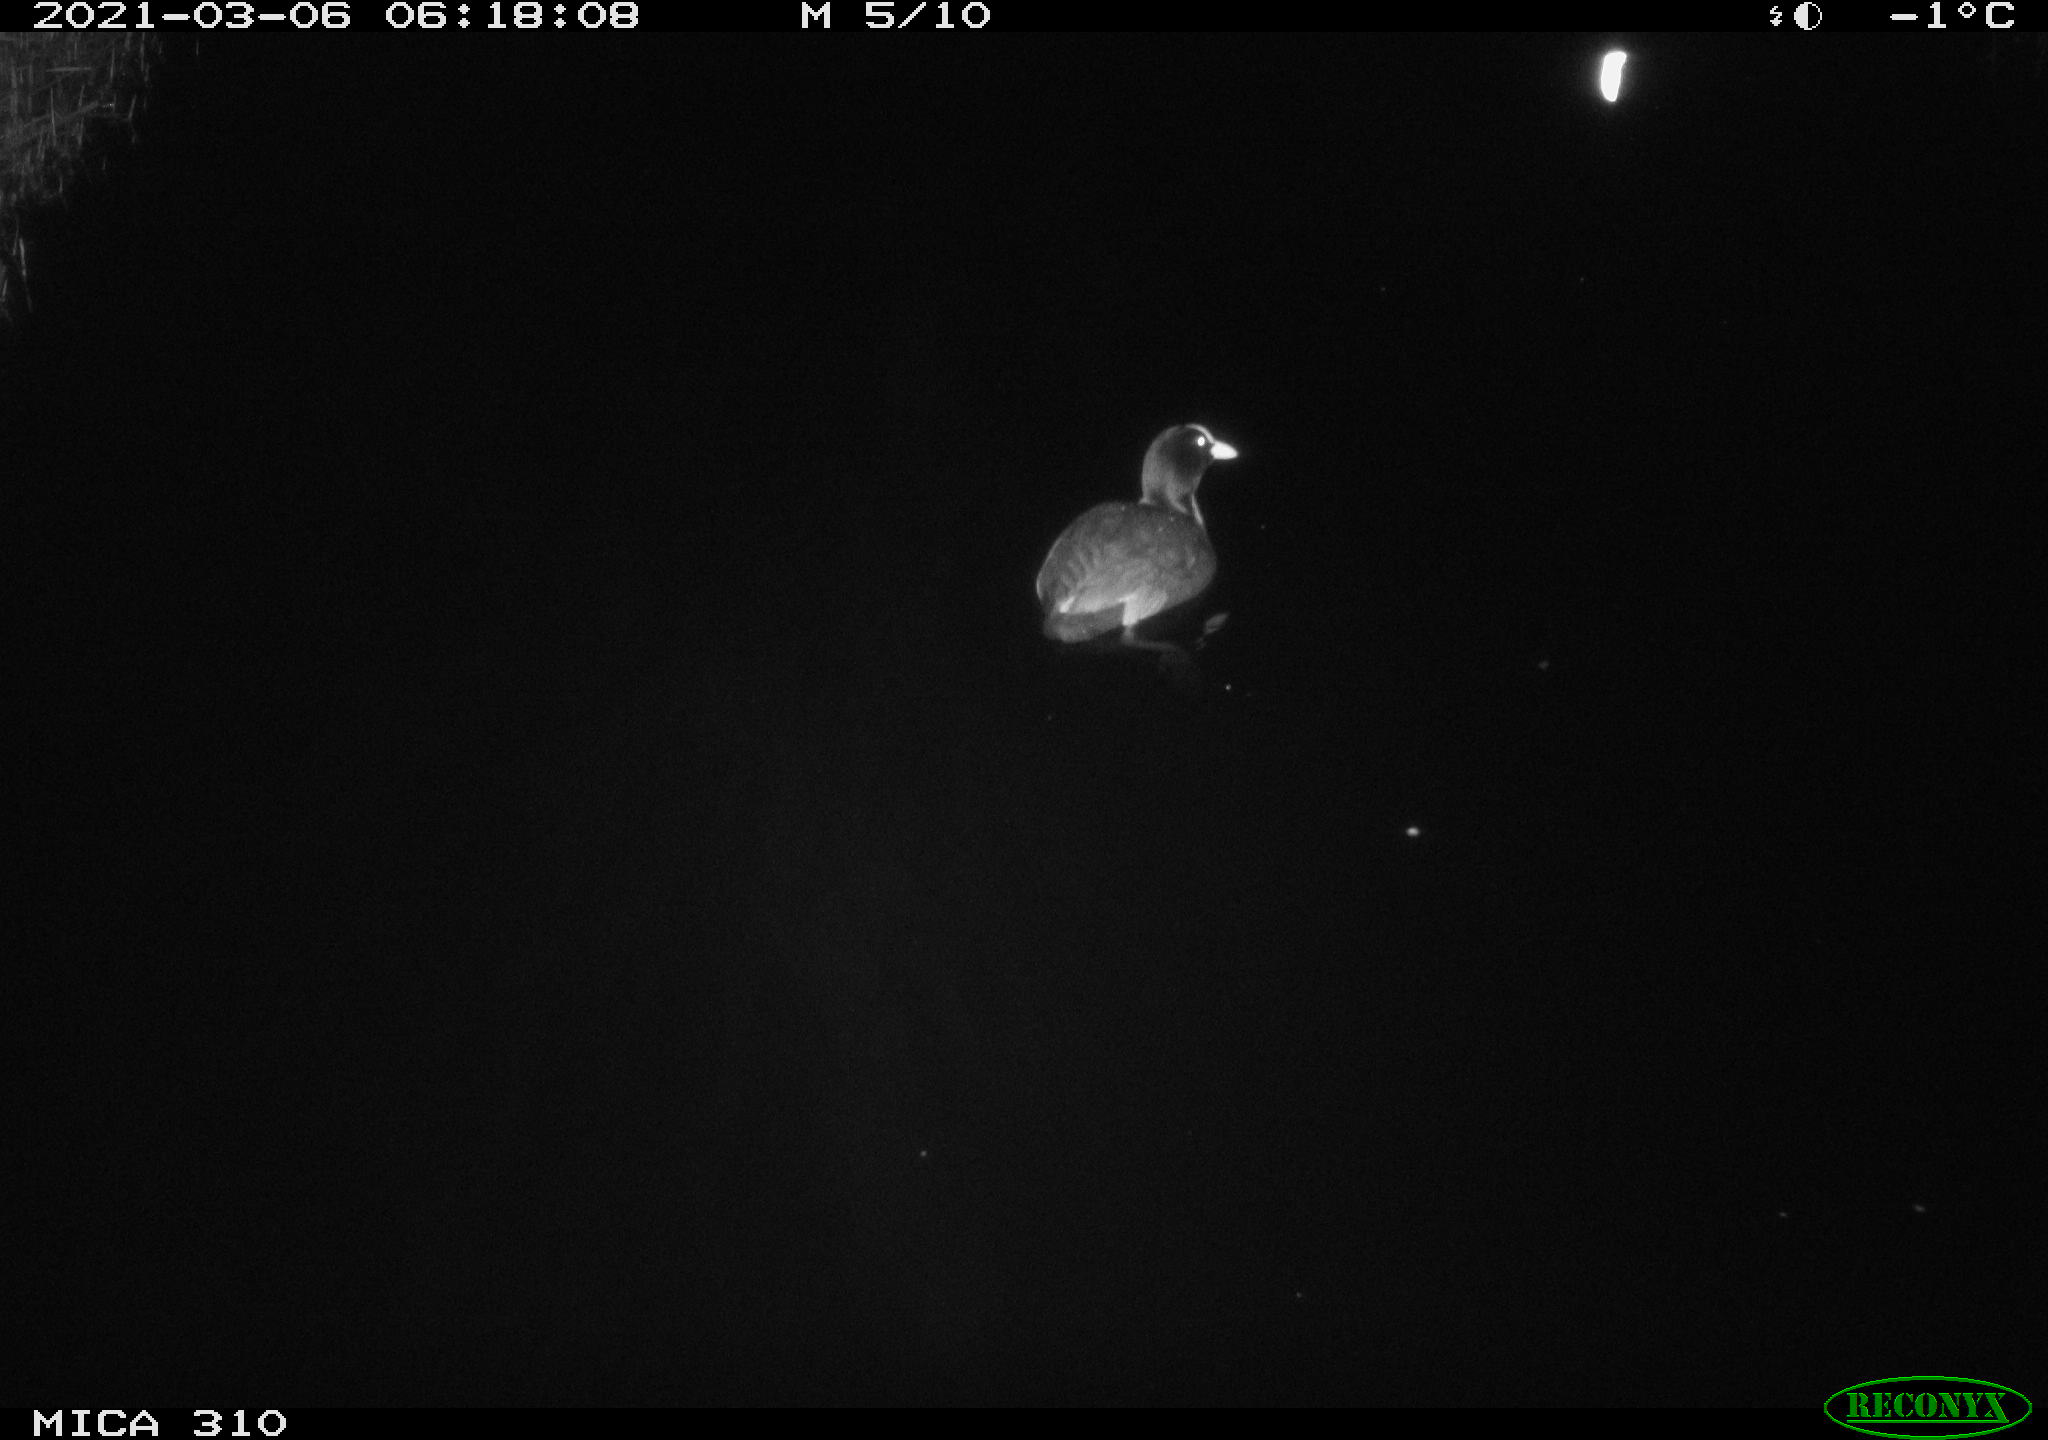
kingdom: Animalia
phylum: Chordata
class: Aves
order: Gruiformes
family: Rallidae
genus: Fulica
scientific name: Fulica atra
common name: Eurasian coot
